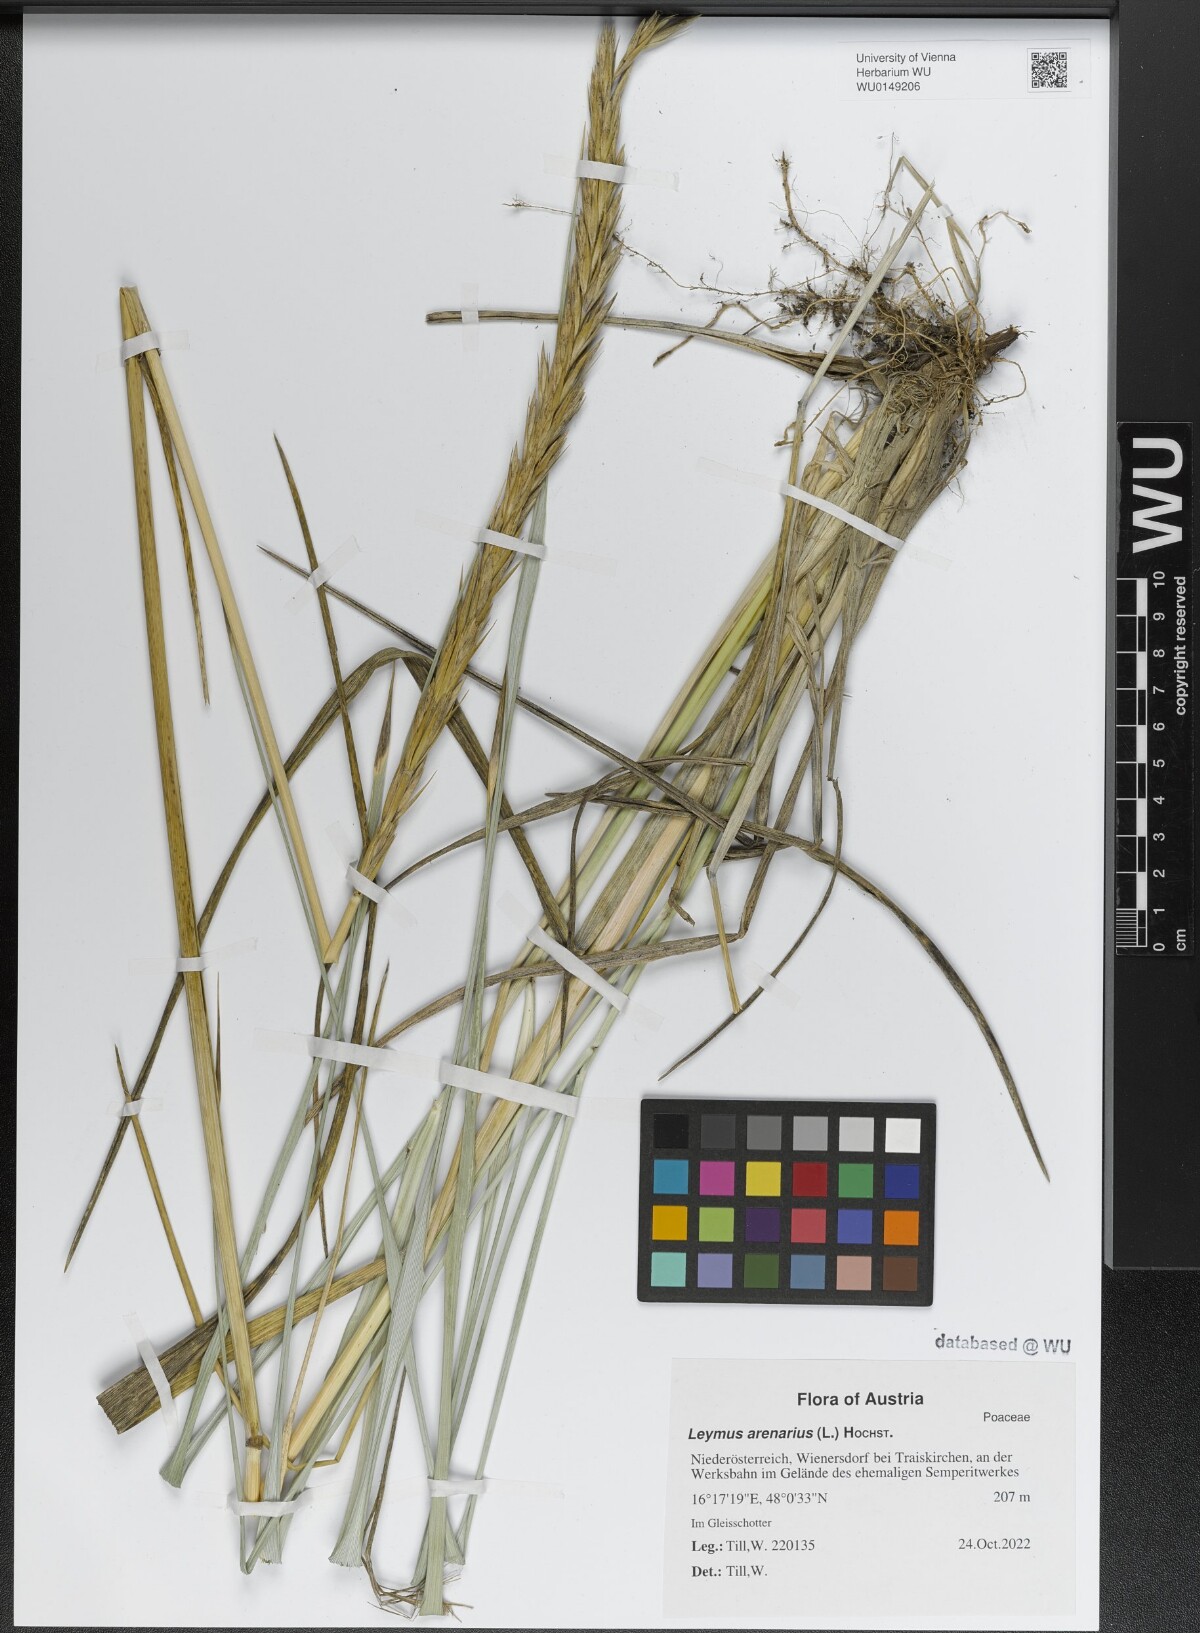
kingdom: Plantae
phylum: Tracheophyta
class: Liliopsida
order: Poales
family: Poaceae
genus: Leymus
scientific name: Leymus arenarius
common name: Lyme-grass
